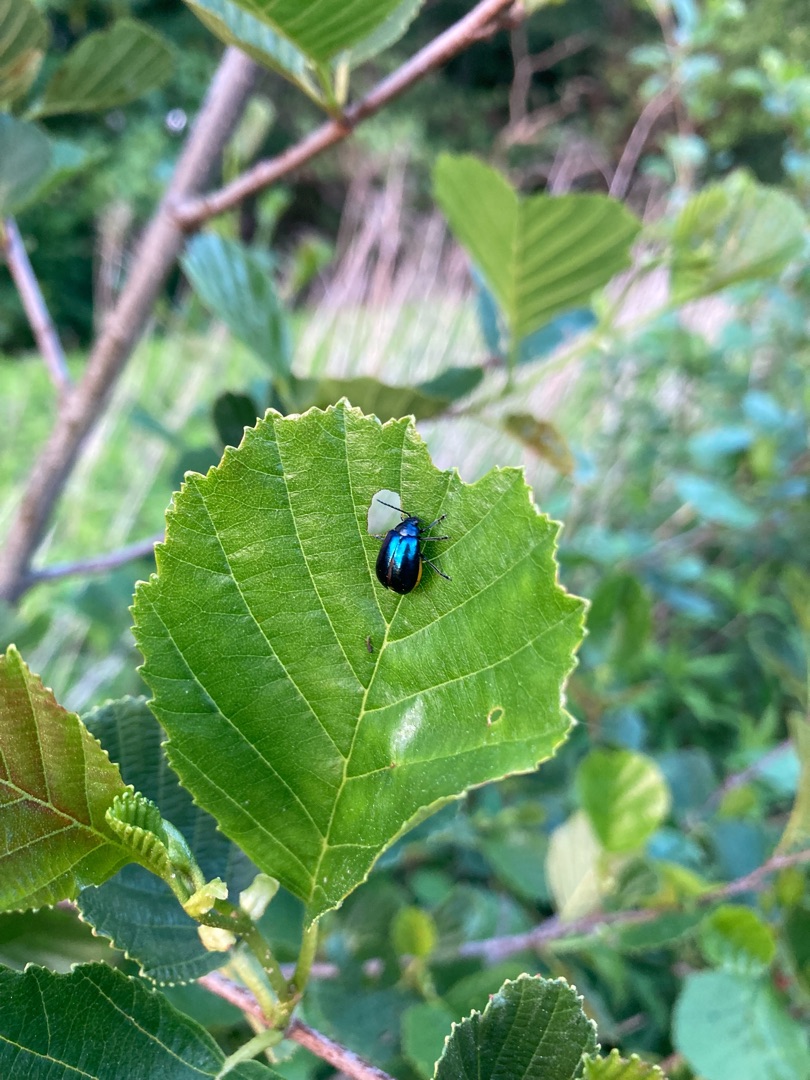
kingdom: Animalia
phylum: Arthropoda
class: Insecta
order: Coleoptera
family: Chrysomelidae
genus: Agelastica
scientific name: Agelastica alni
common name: Ellebladbille
